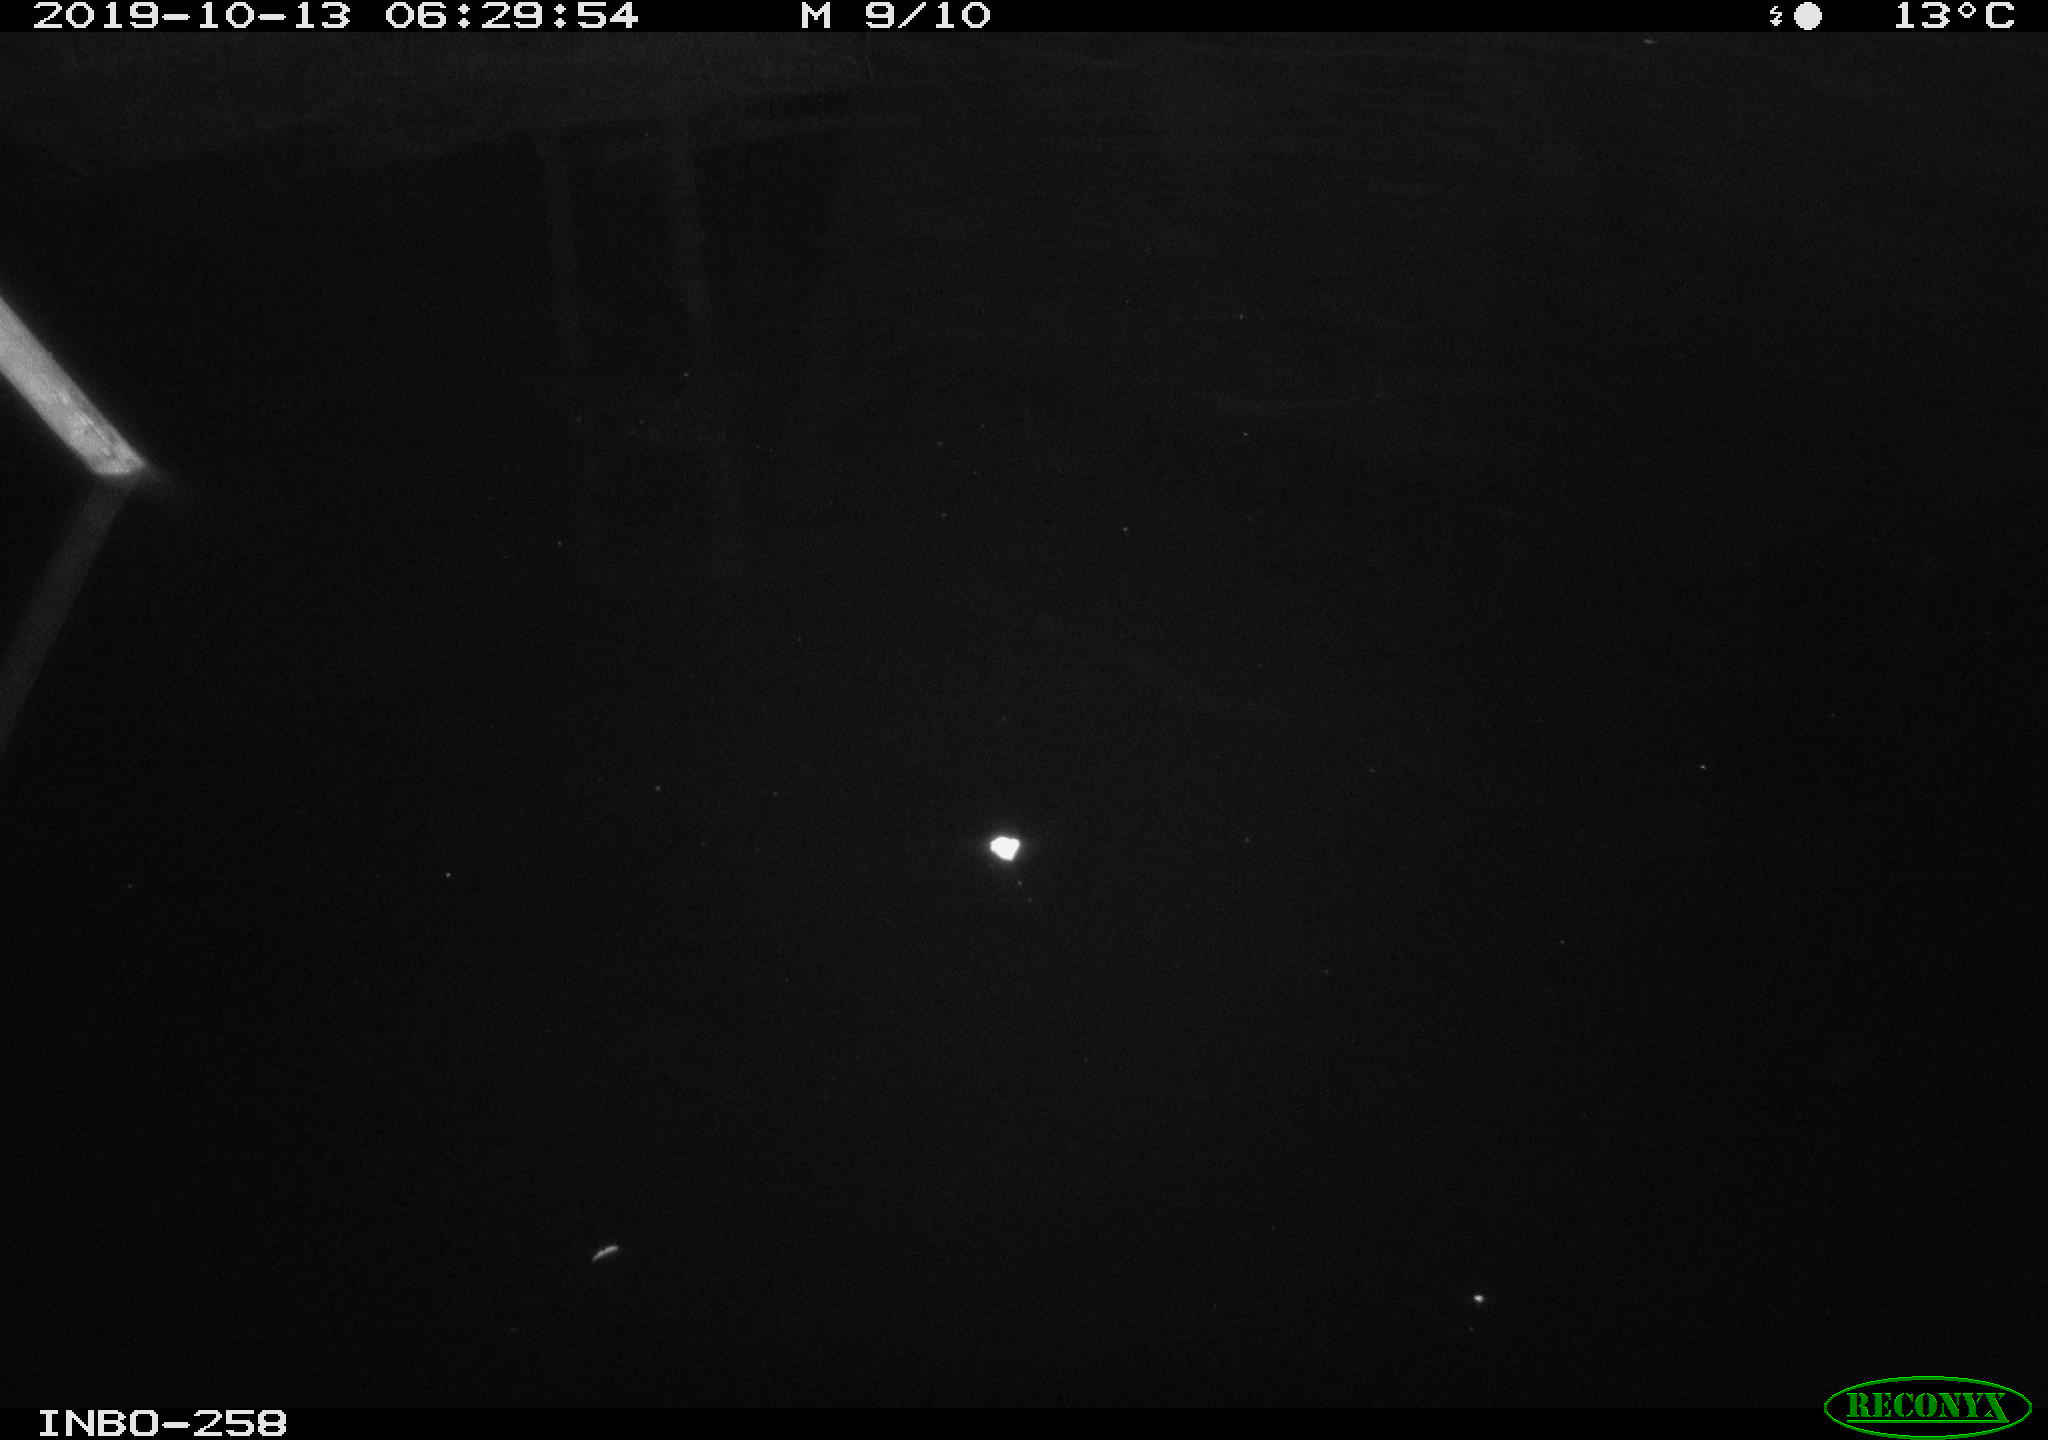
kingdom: Animalia
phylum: Chordata
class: Aves
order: Anseriformes
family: Anatidae
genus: Anas
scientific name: Anas platyrhynchos
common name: Mallard
